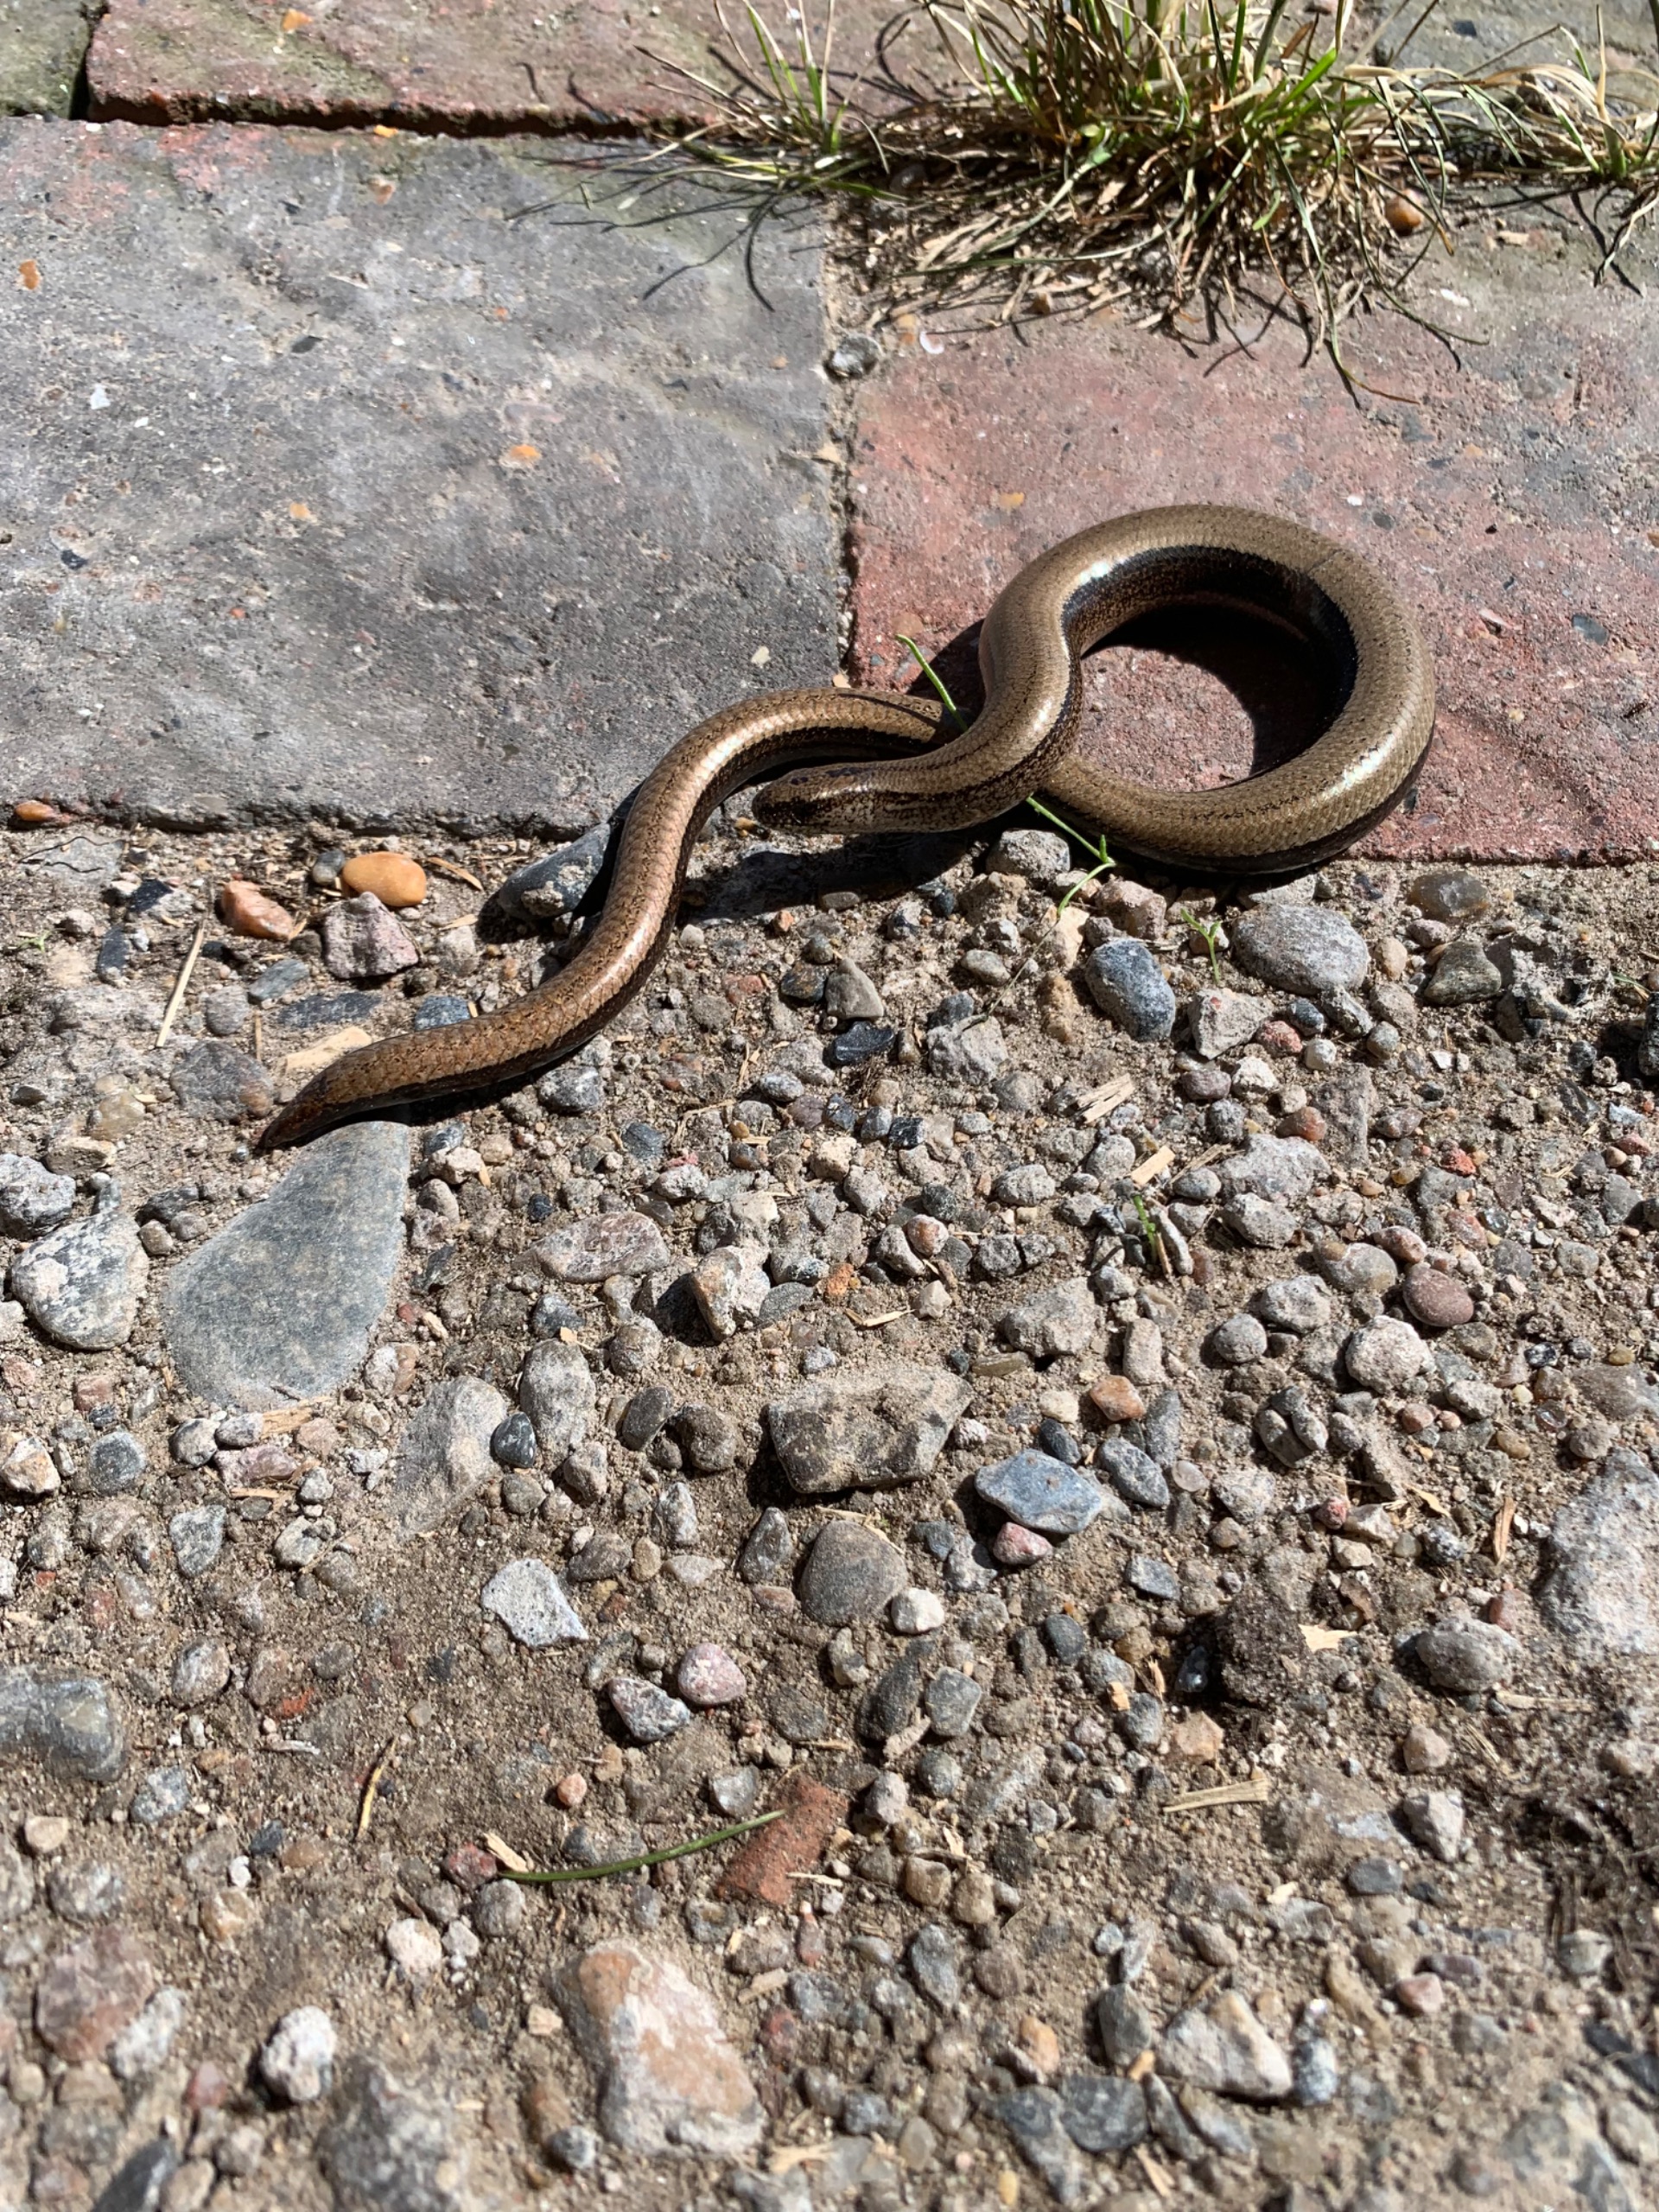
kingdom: Animalia
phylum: Chordata
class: Squamata
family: Anguidae
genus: Anguis
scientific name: Anguis fragilis
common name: Stålorm
